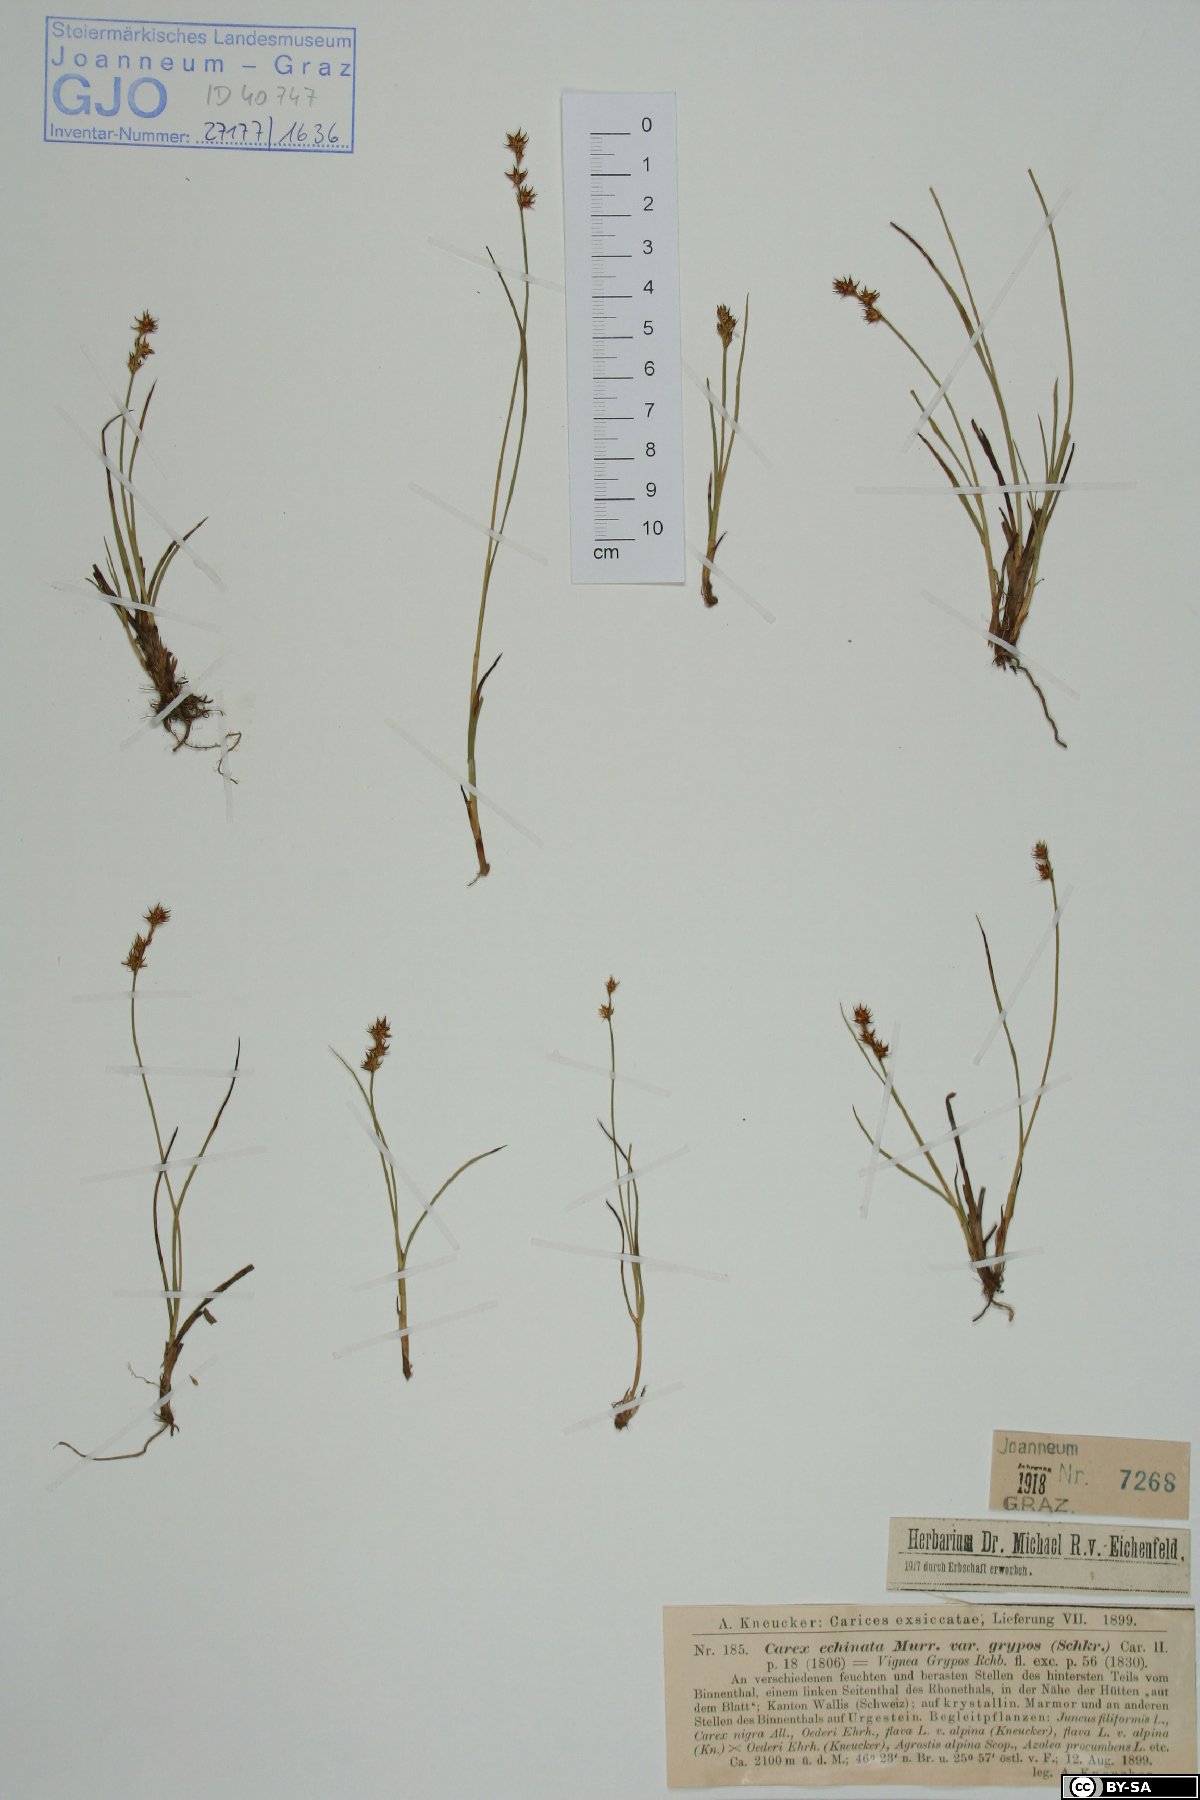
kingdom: Plantae
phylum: Tracheophyta
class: Liliopsida
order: Poales
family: Cyperaceae
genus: Carex
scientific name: Carex echinata
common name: Star sedge
